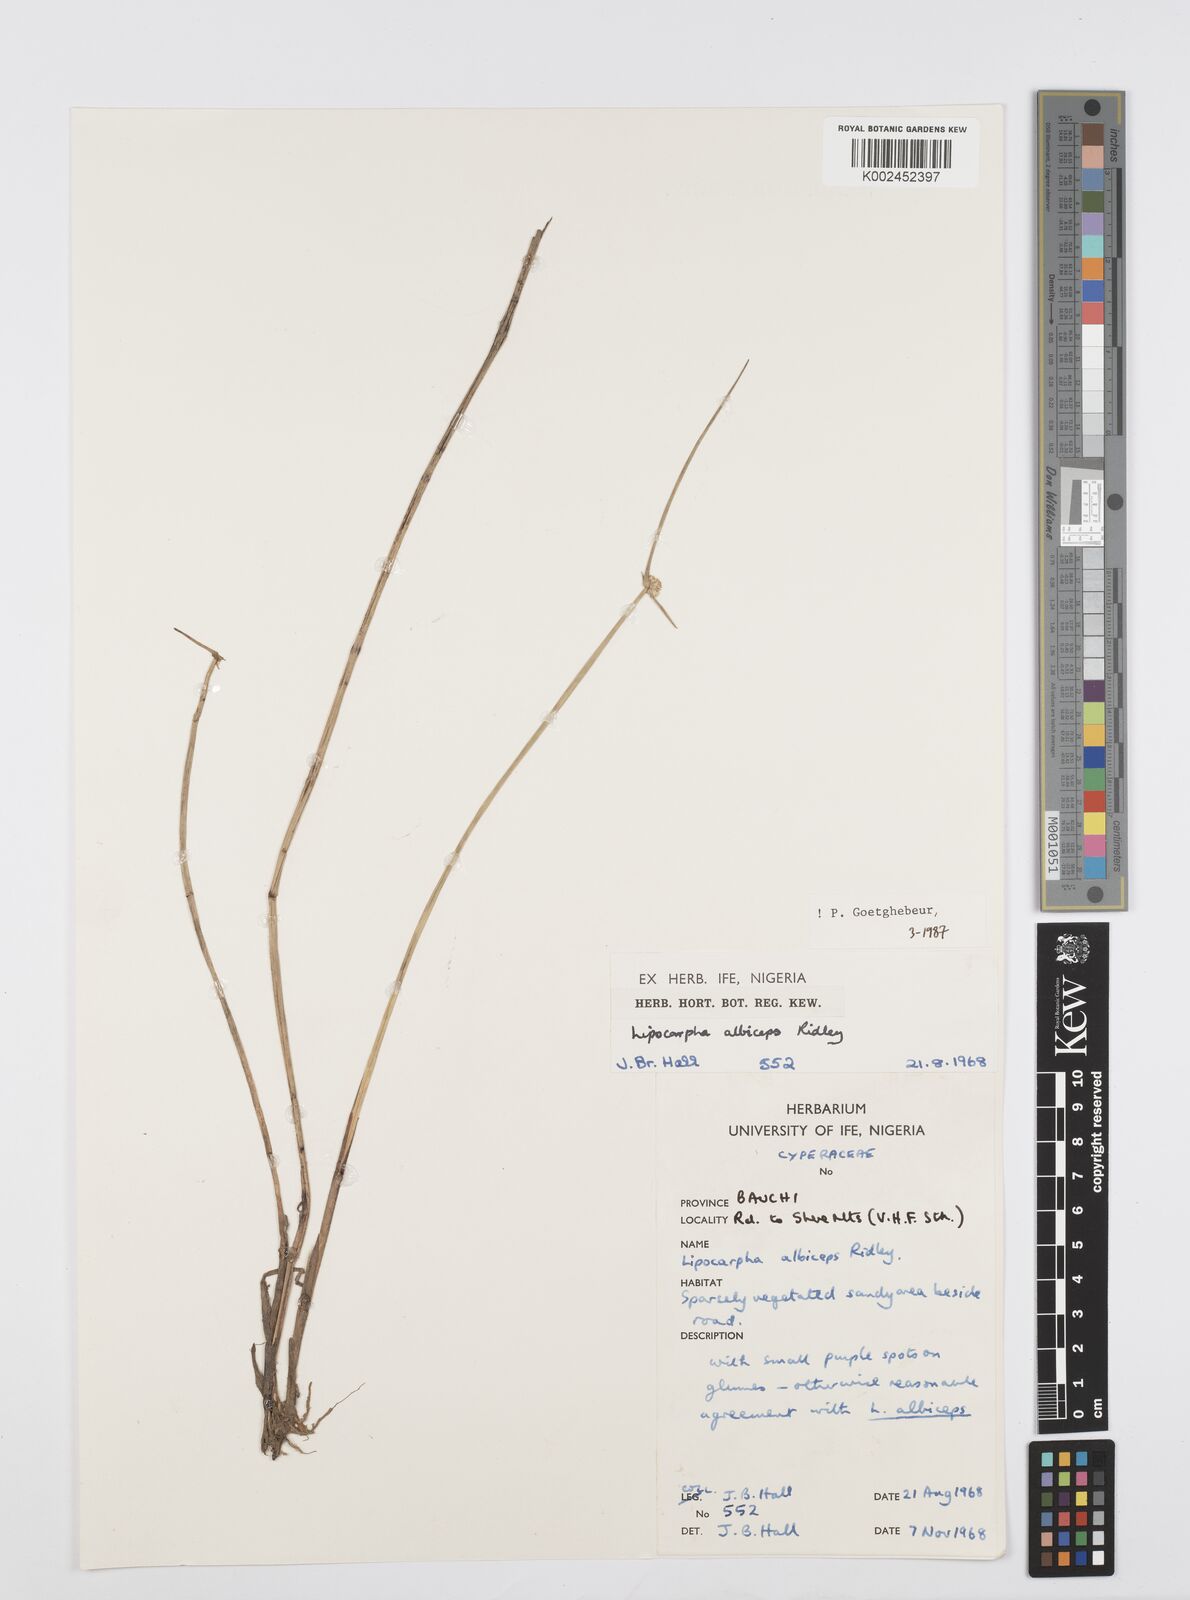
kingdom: Plantae
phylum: Tracheophyta
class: Liliopsida
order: Poales
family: Cyperaceae
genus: Cyperus
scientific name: Cyperus albiceps
